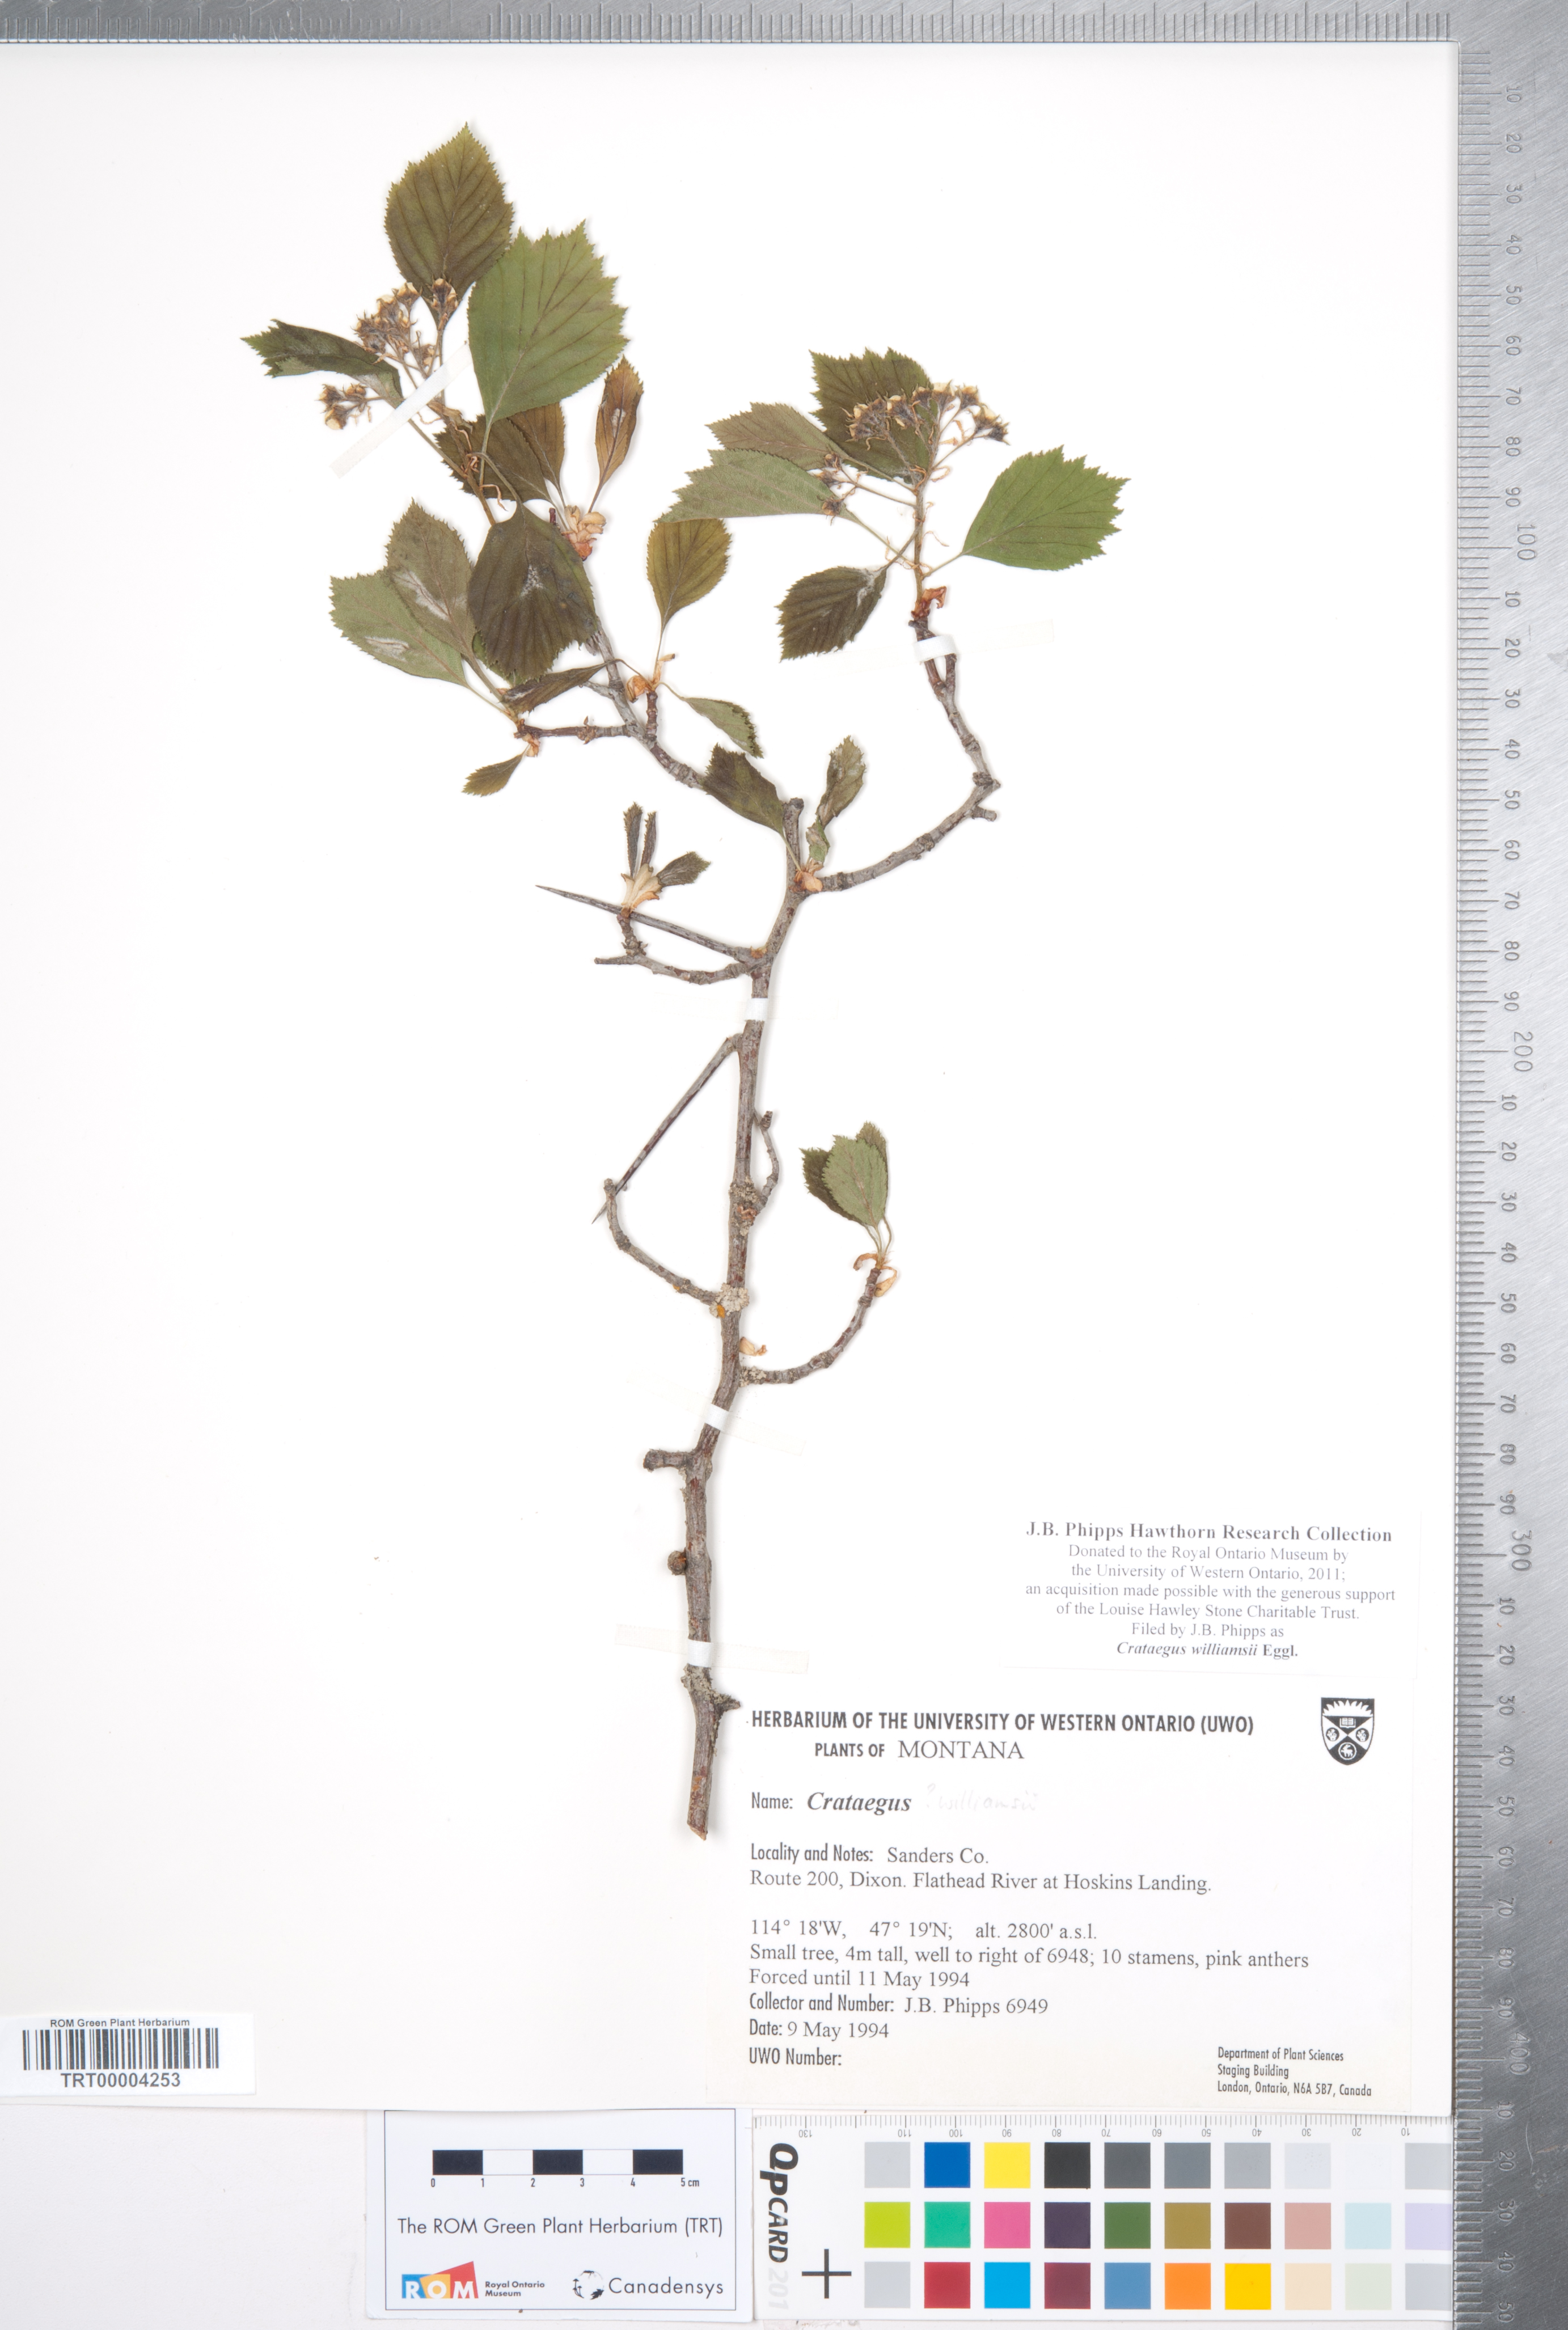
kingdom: Plantae
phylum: Tracheophyta
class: Magnoliopsida
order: Rosales
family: Rosaceae
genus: Crataegus
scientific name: Crataegus williamsii
